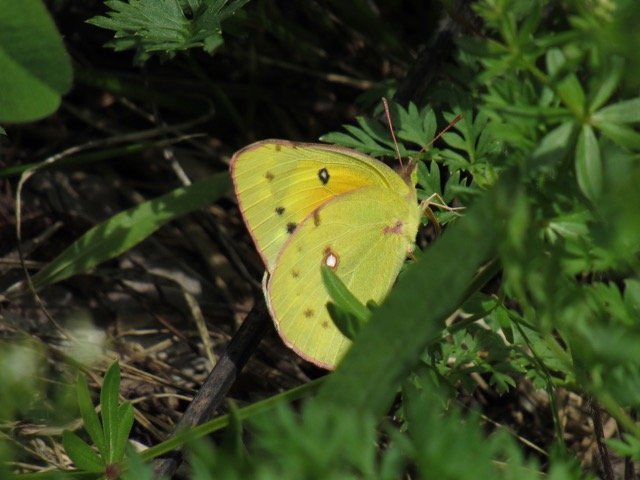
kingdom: Animalia
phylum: Arthropoda
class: Insecta
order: Lepidoptera
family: Pieridae
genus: Colias
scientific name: Colias eurytheme
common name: Orange Sulphur
